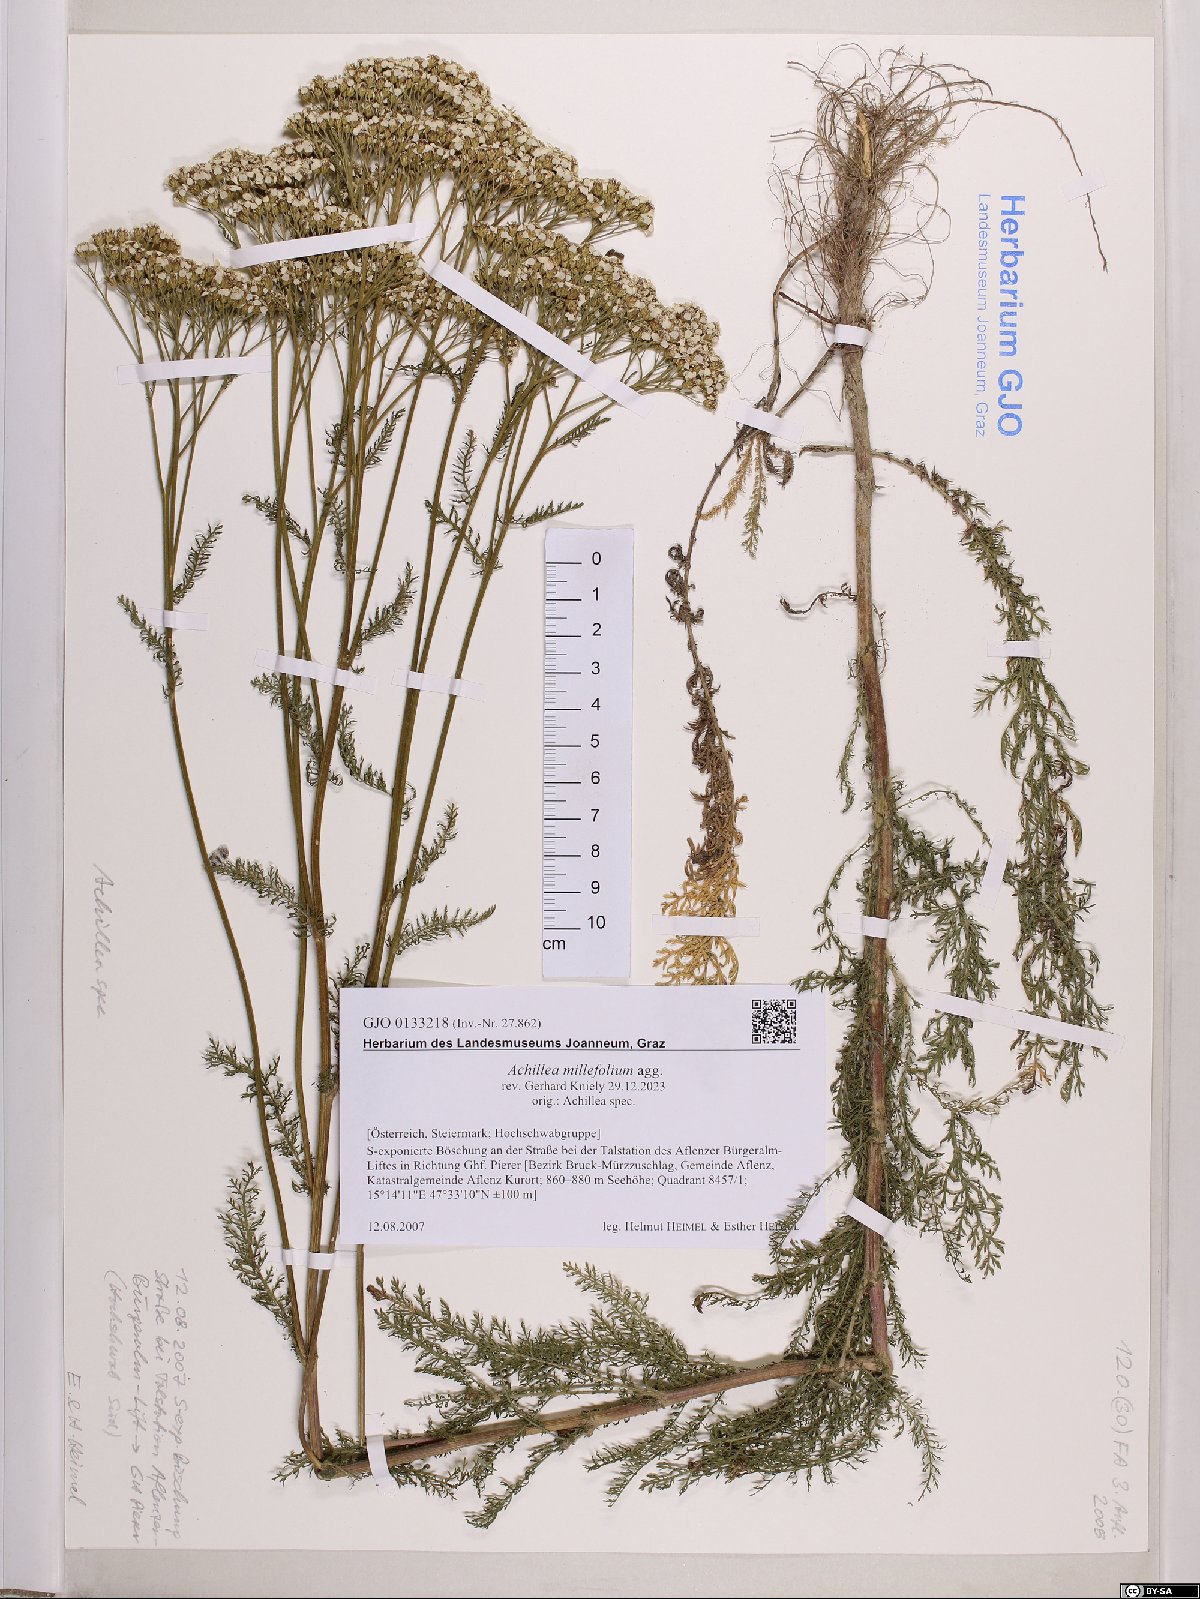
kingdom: Plantae
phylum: Tracheophyta
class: Magnoliopsida
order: Asterales
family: Asteraceae
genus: Achillea
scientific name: Achillea millefolium
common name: Yarrow
